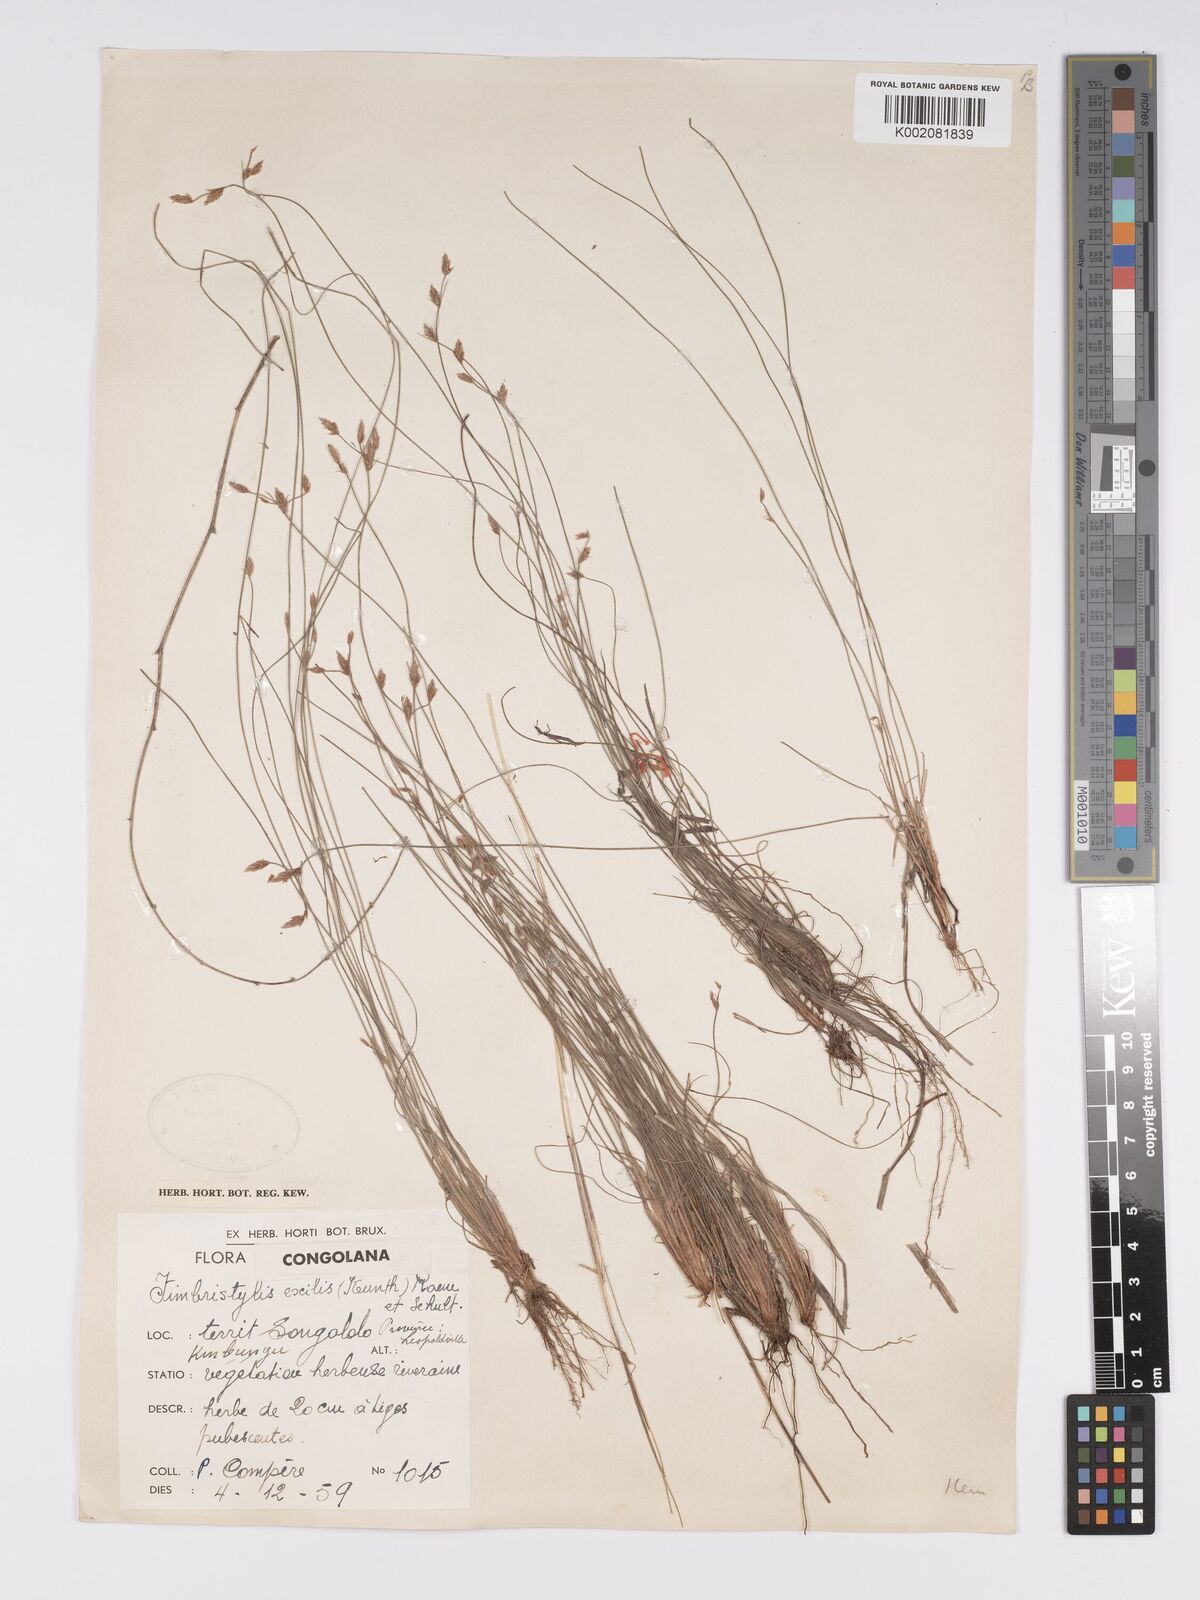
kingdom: Plantae
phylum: Tracheophyta
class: Liliopsida
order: Poales
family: Cyperaceae
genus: Bulbostylis
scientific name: Bulbostylis hispidula
